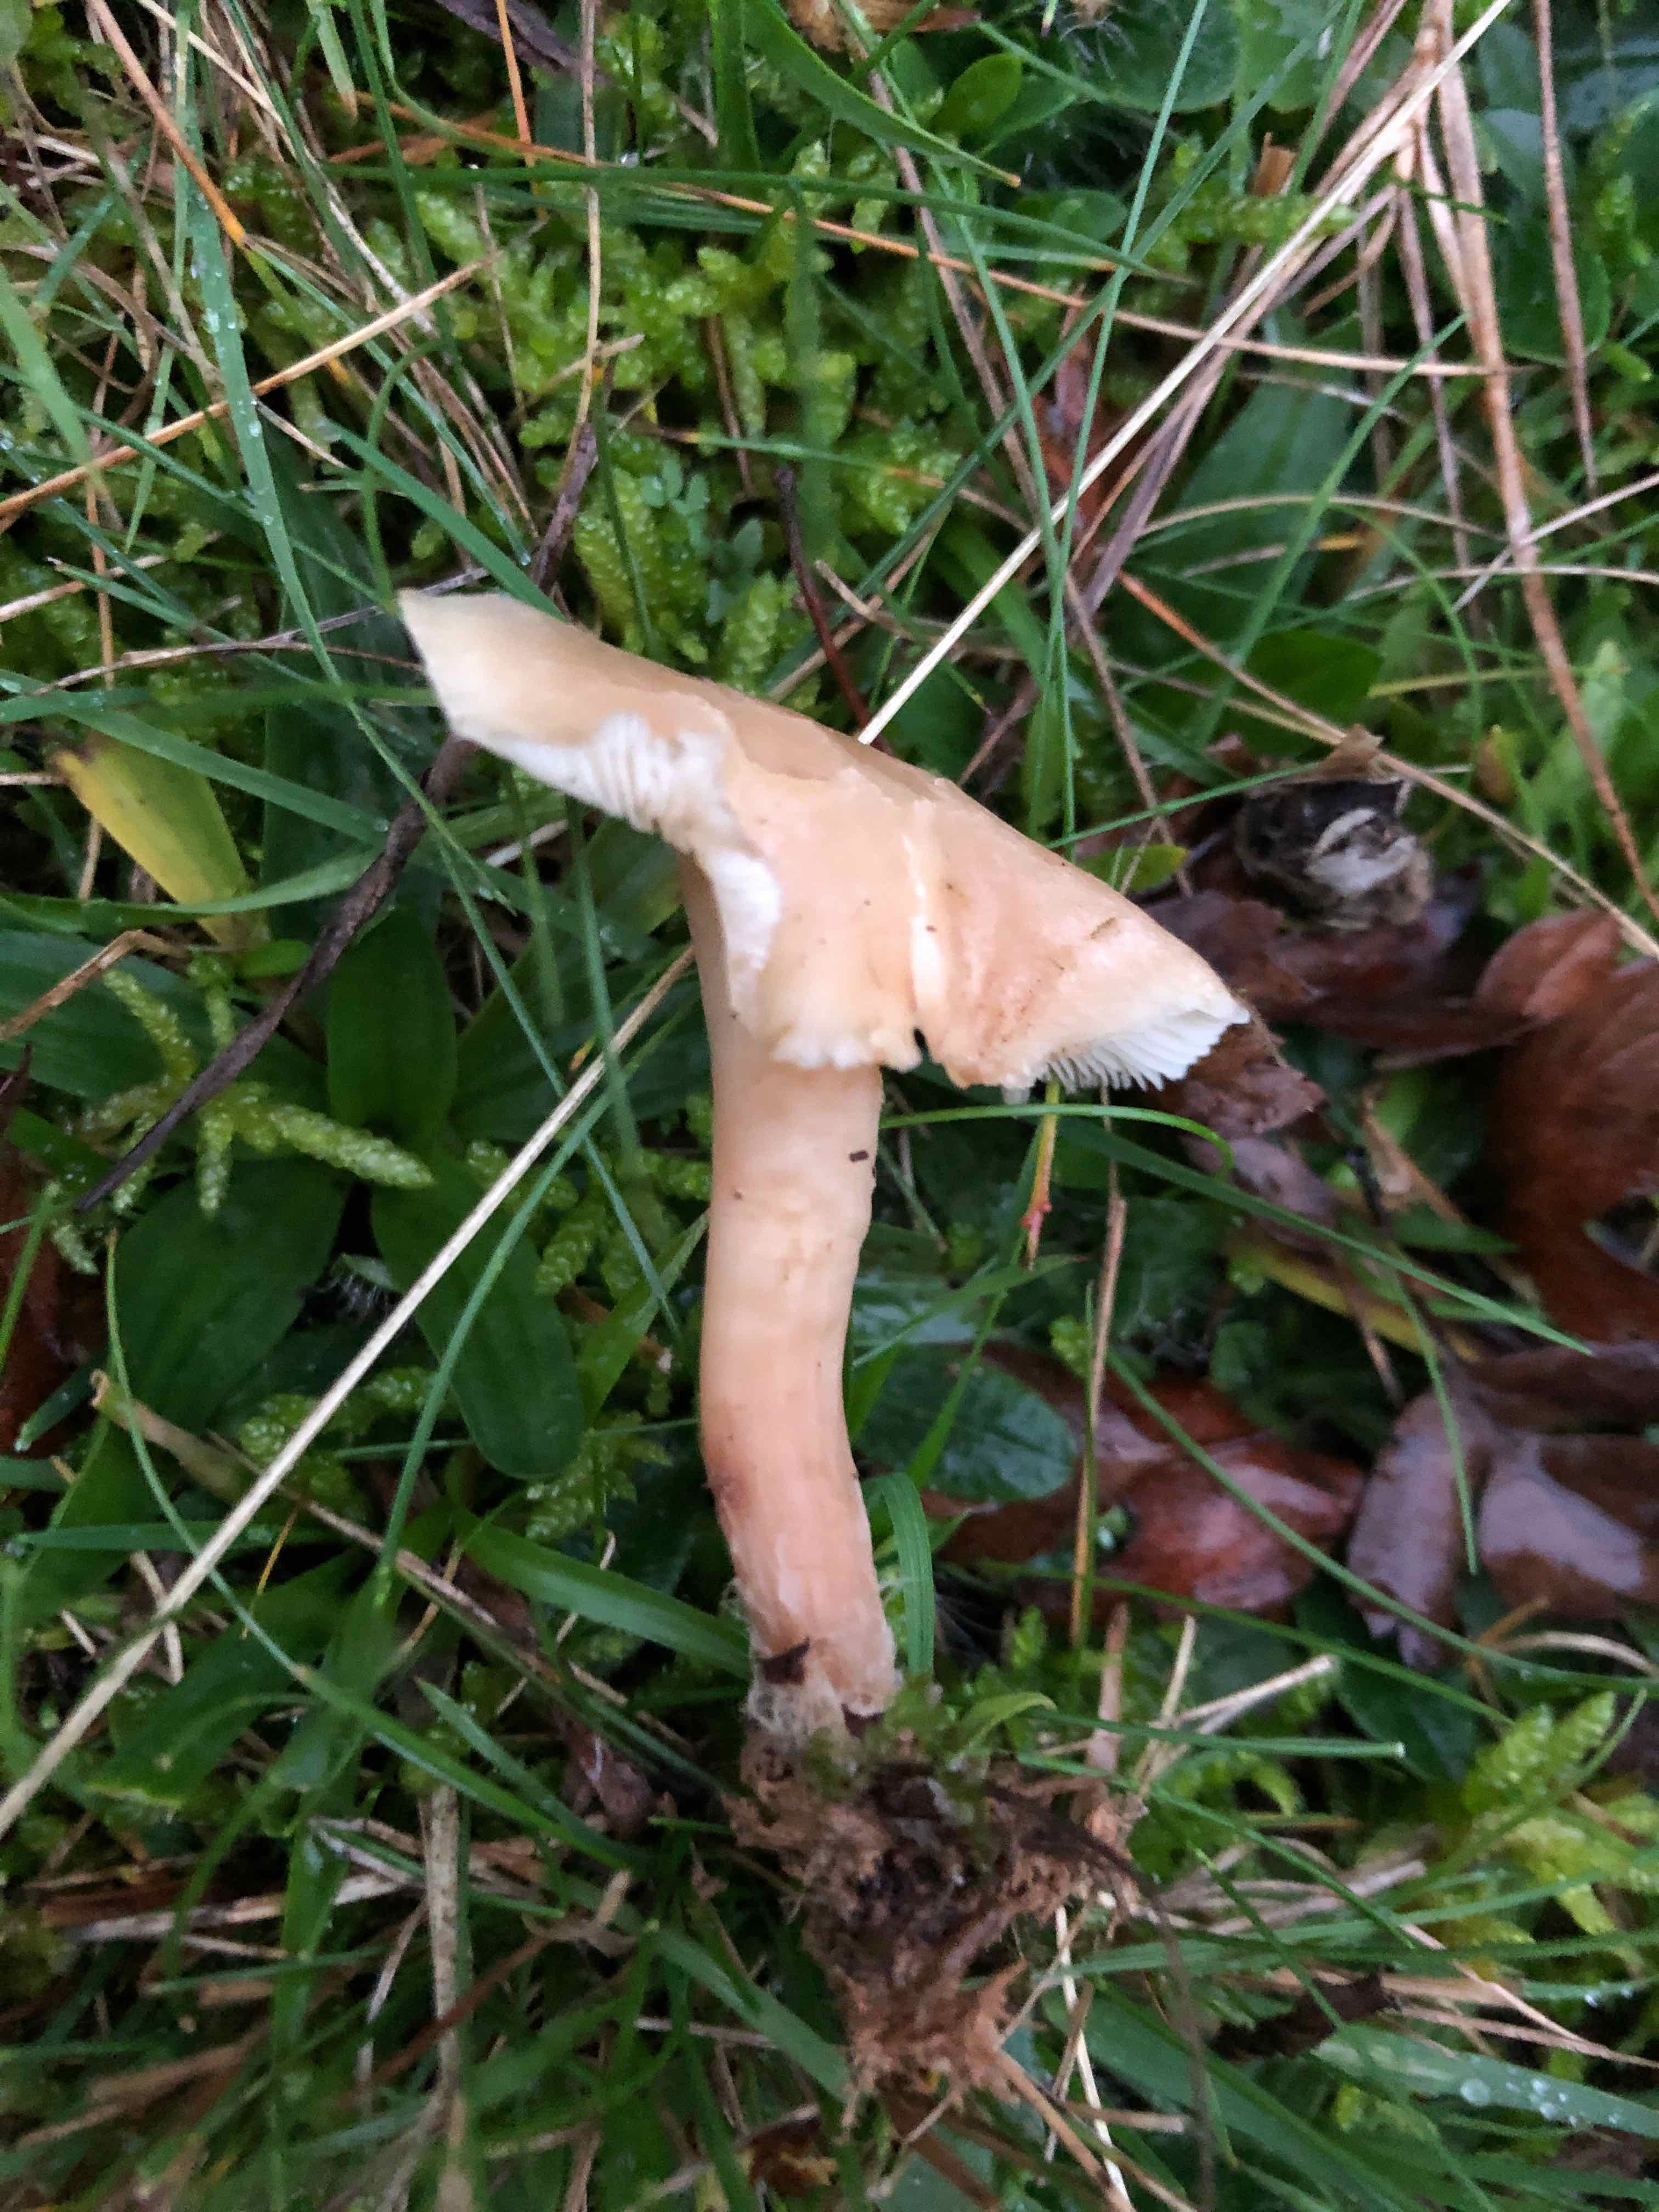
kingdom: Fungi
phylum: Basidiomycota
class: Agaricomycetes
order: Agaricales
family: Lyophyllaceae
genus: Calocybe
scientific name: Calocybe carnea
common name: rosa fagerhat
